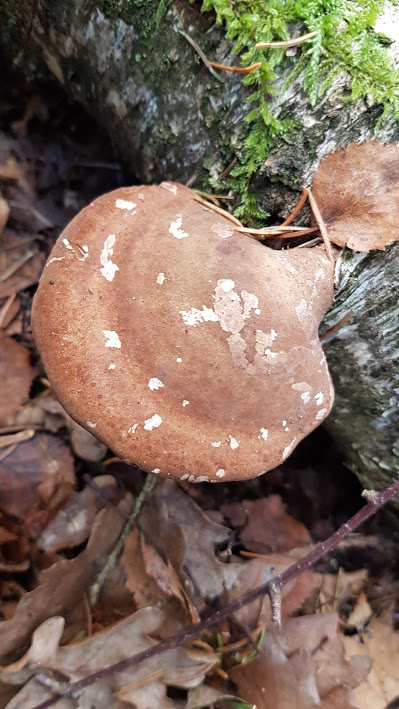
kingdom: Fungi
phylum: Basidiomycota
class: Agaricomycetes
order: Polyporales
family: Fomitopsidaceae
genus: Fomitopsis
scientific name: Fomitopsis betulina
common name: birkeporesvamp
